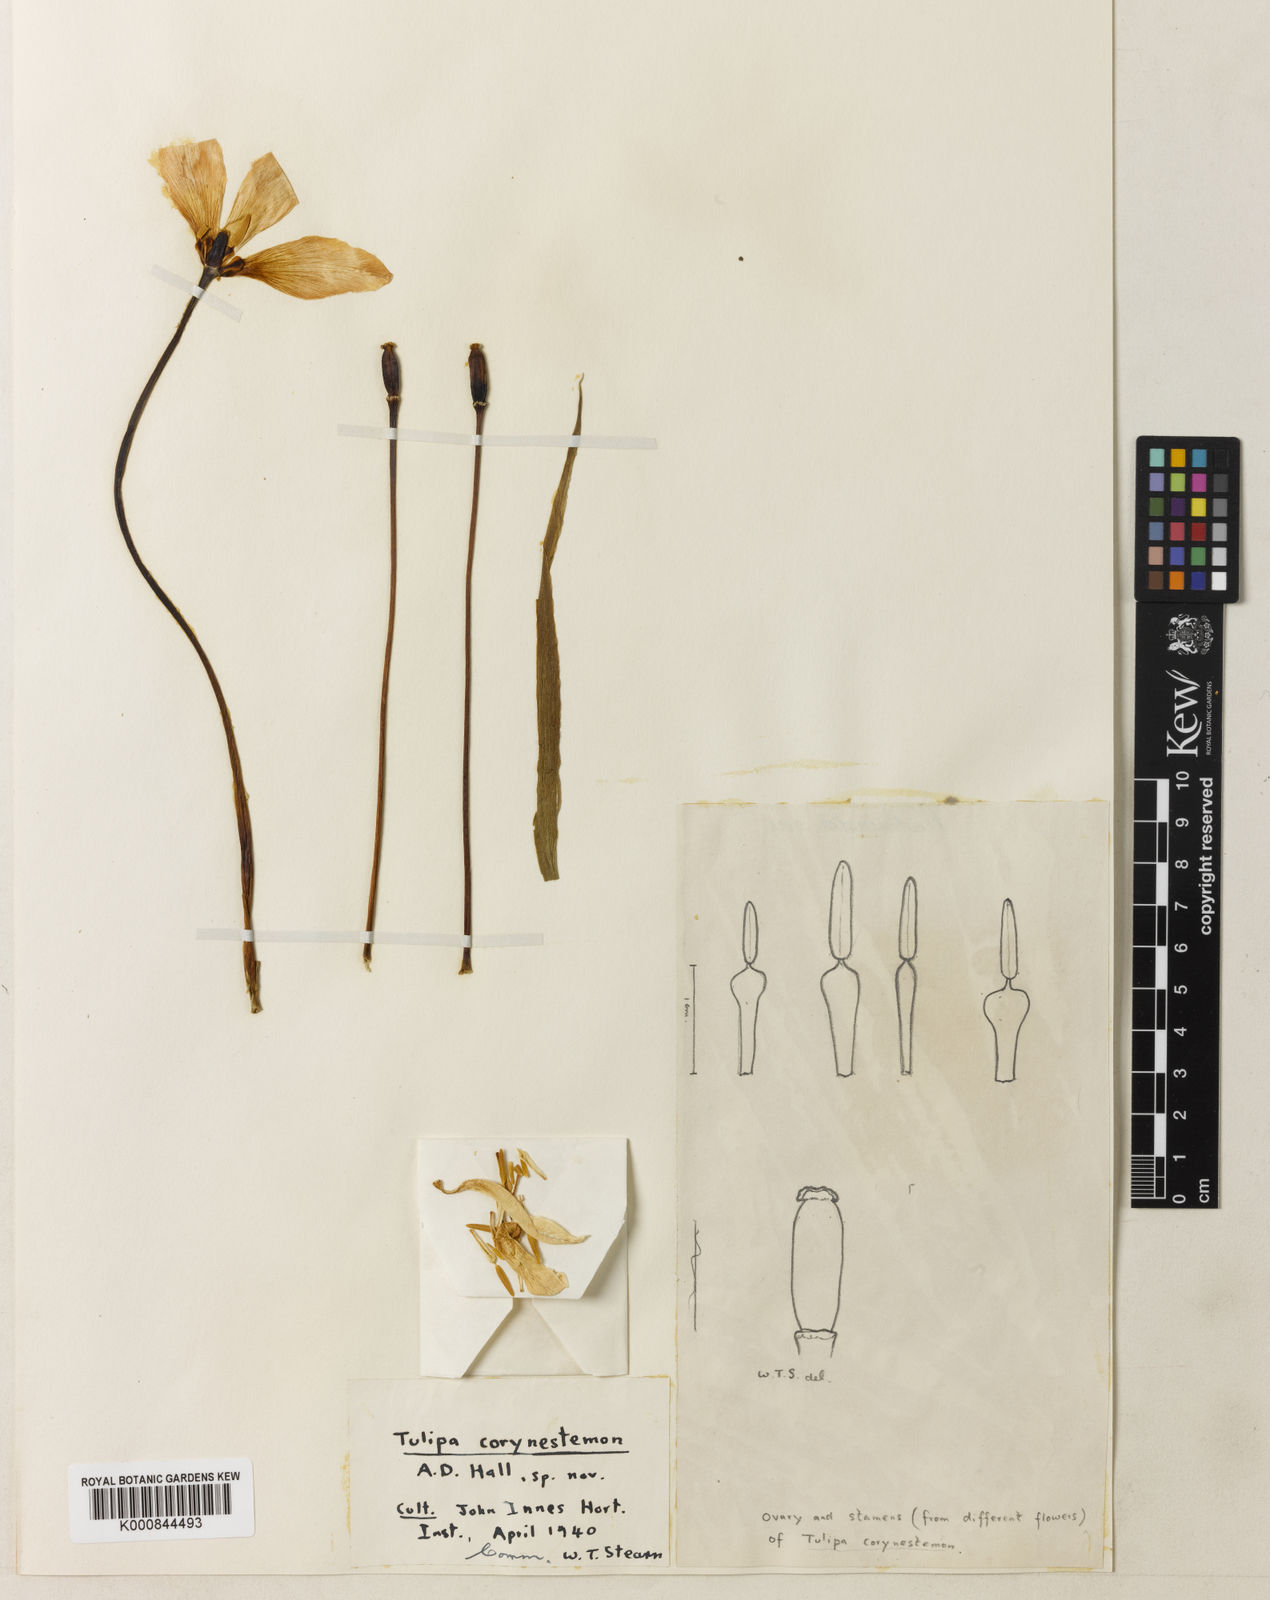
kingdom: Plantae
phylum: Tracheophyta
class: Liliopsida
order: Liliales
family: Liliaceae
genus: Tulipa
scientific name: Tulipa tetraphylla
